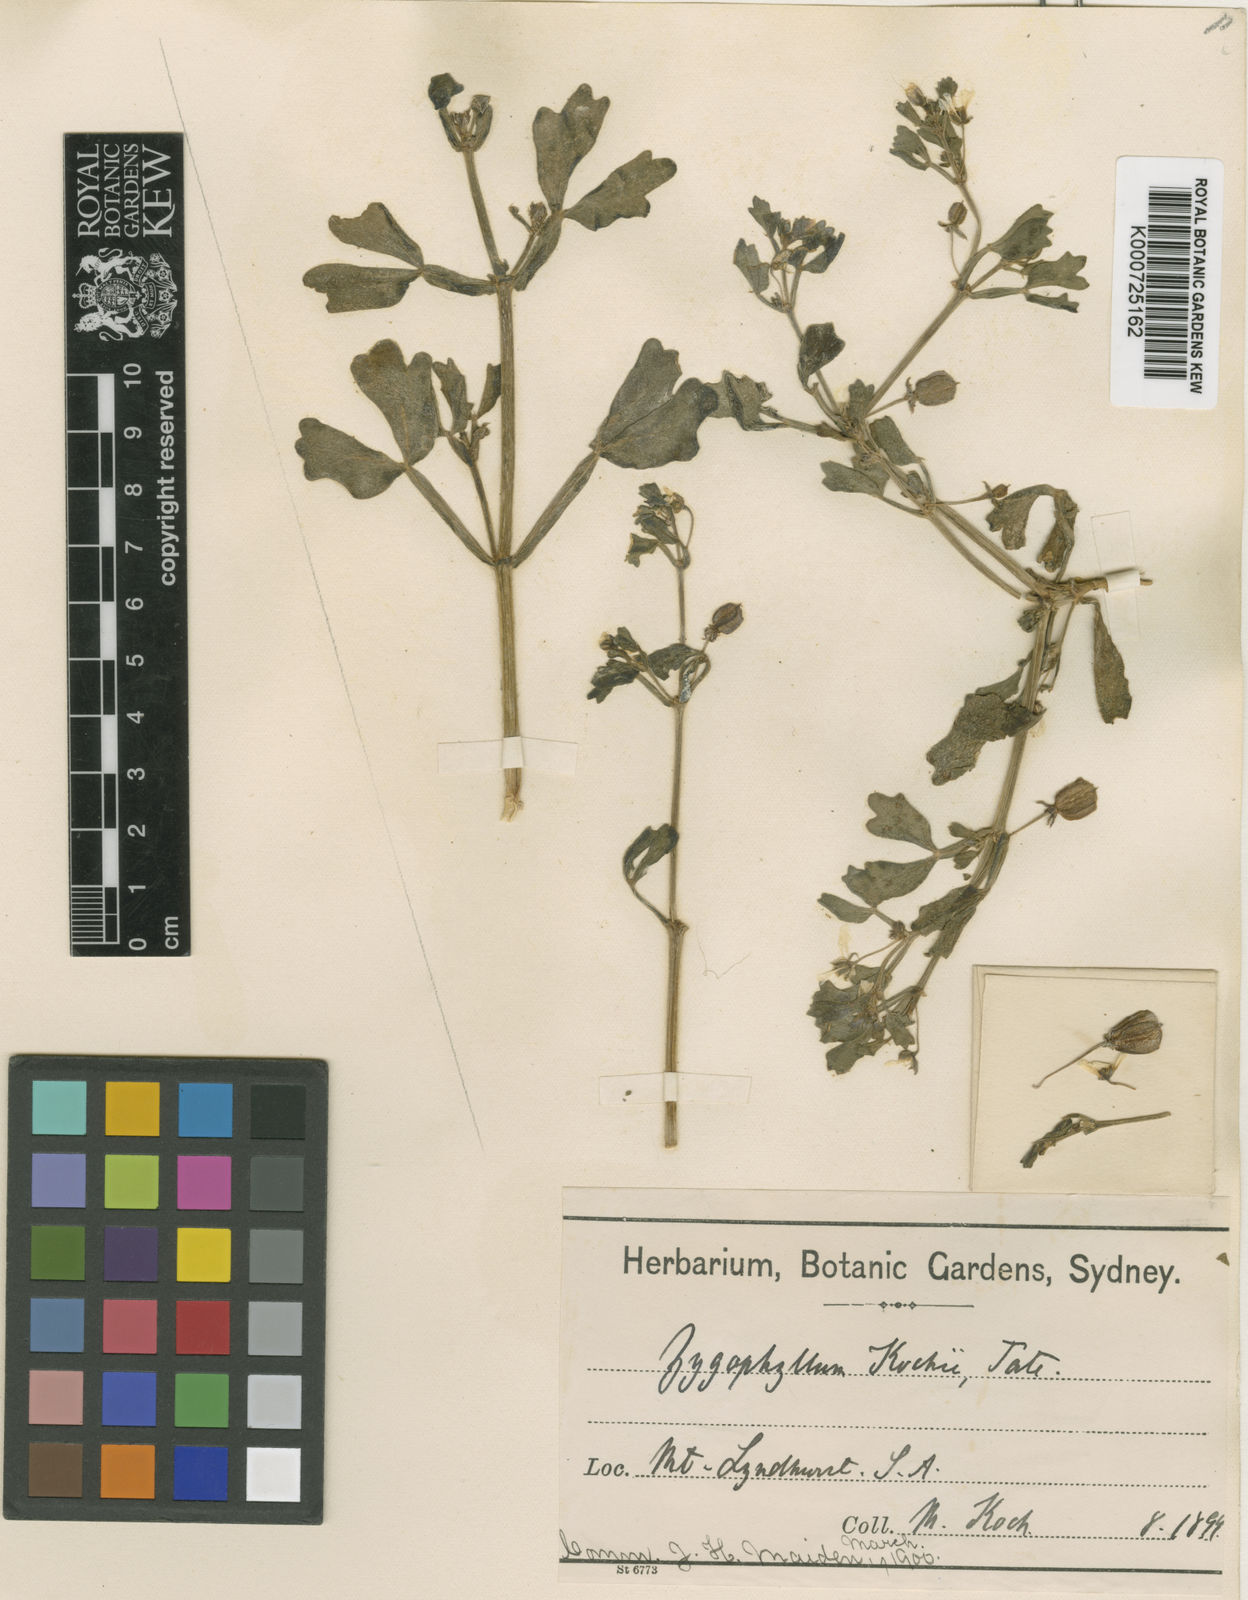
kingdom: Plantae
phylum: Tracheophyta
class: Magnoliopsida
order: Zygophyllales
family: Zygophyllaceae
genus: Roepera
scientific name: Roepera kochii
